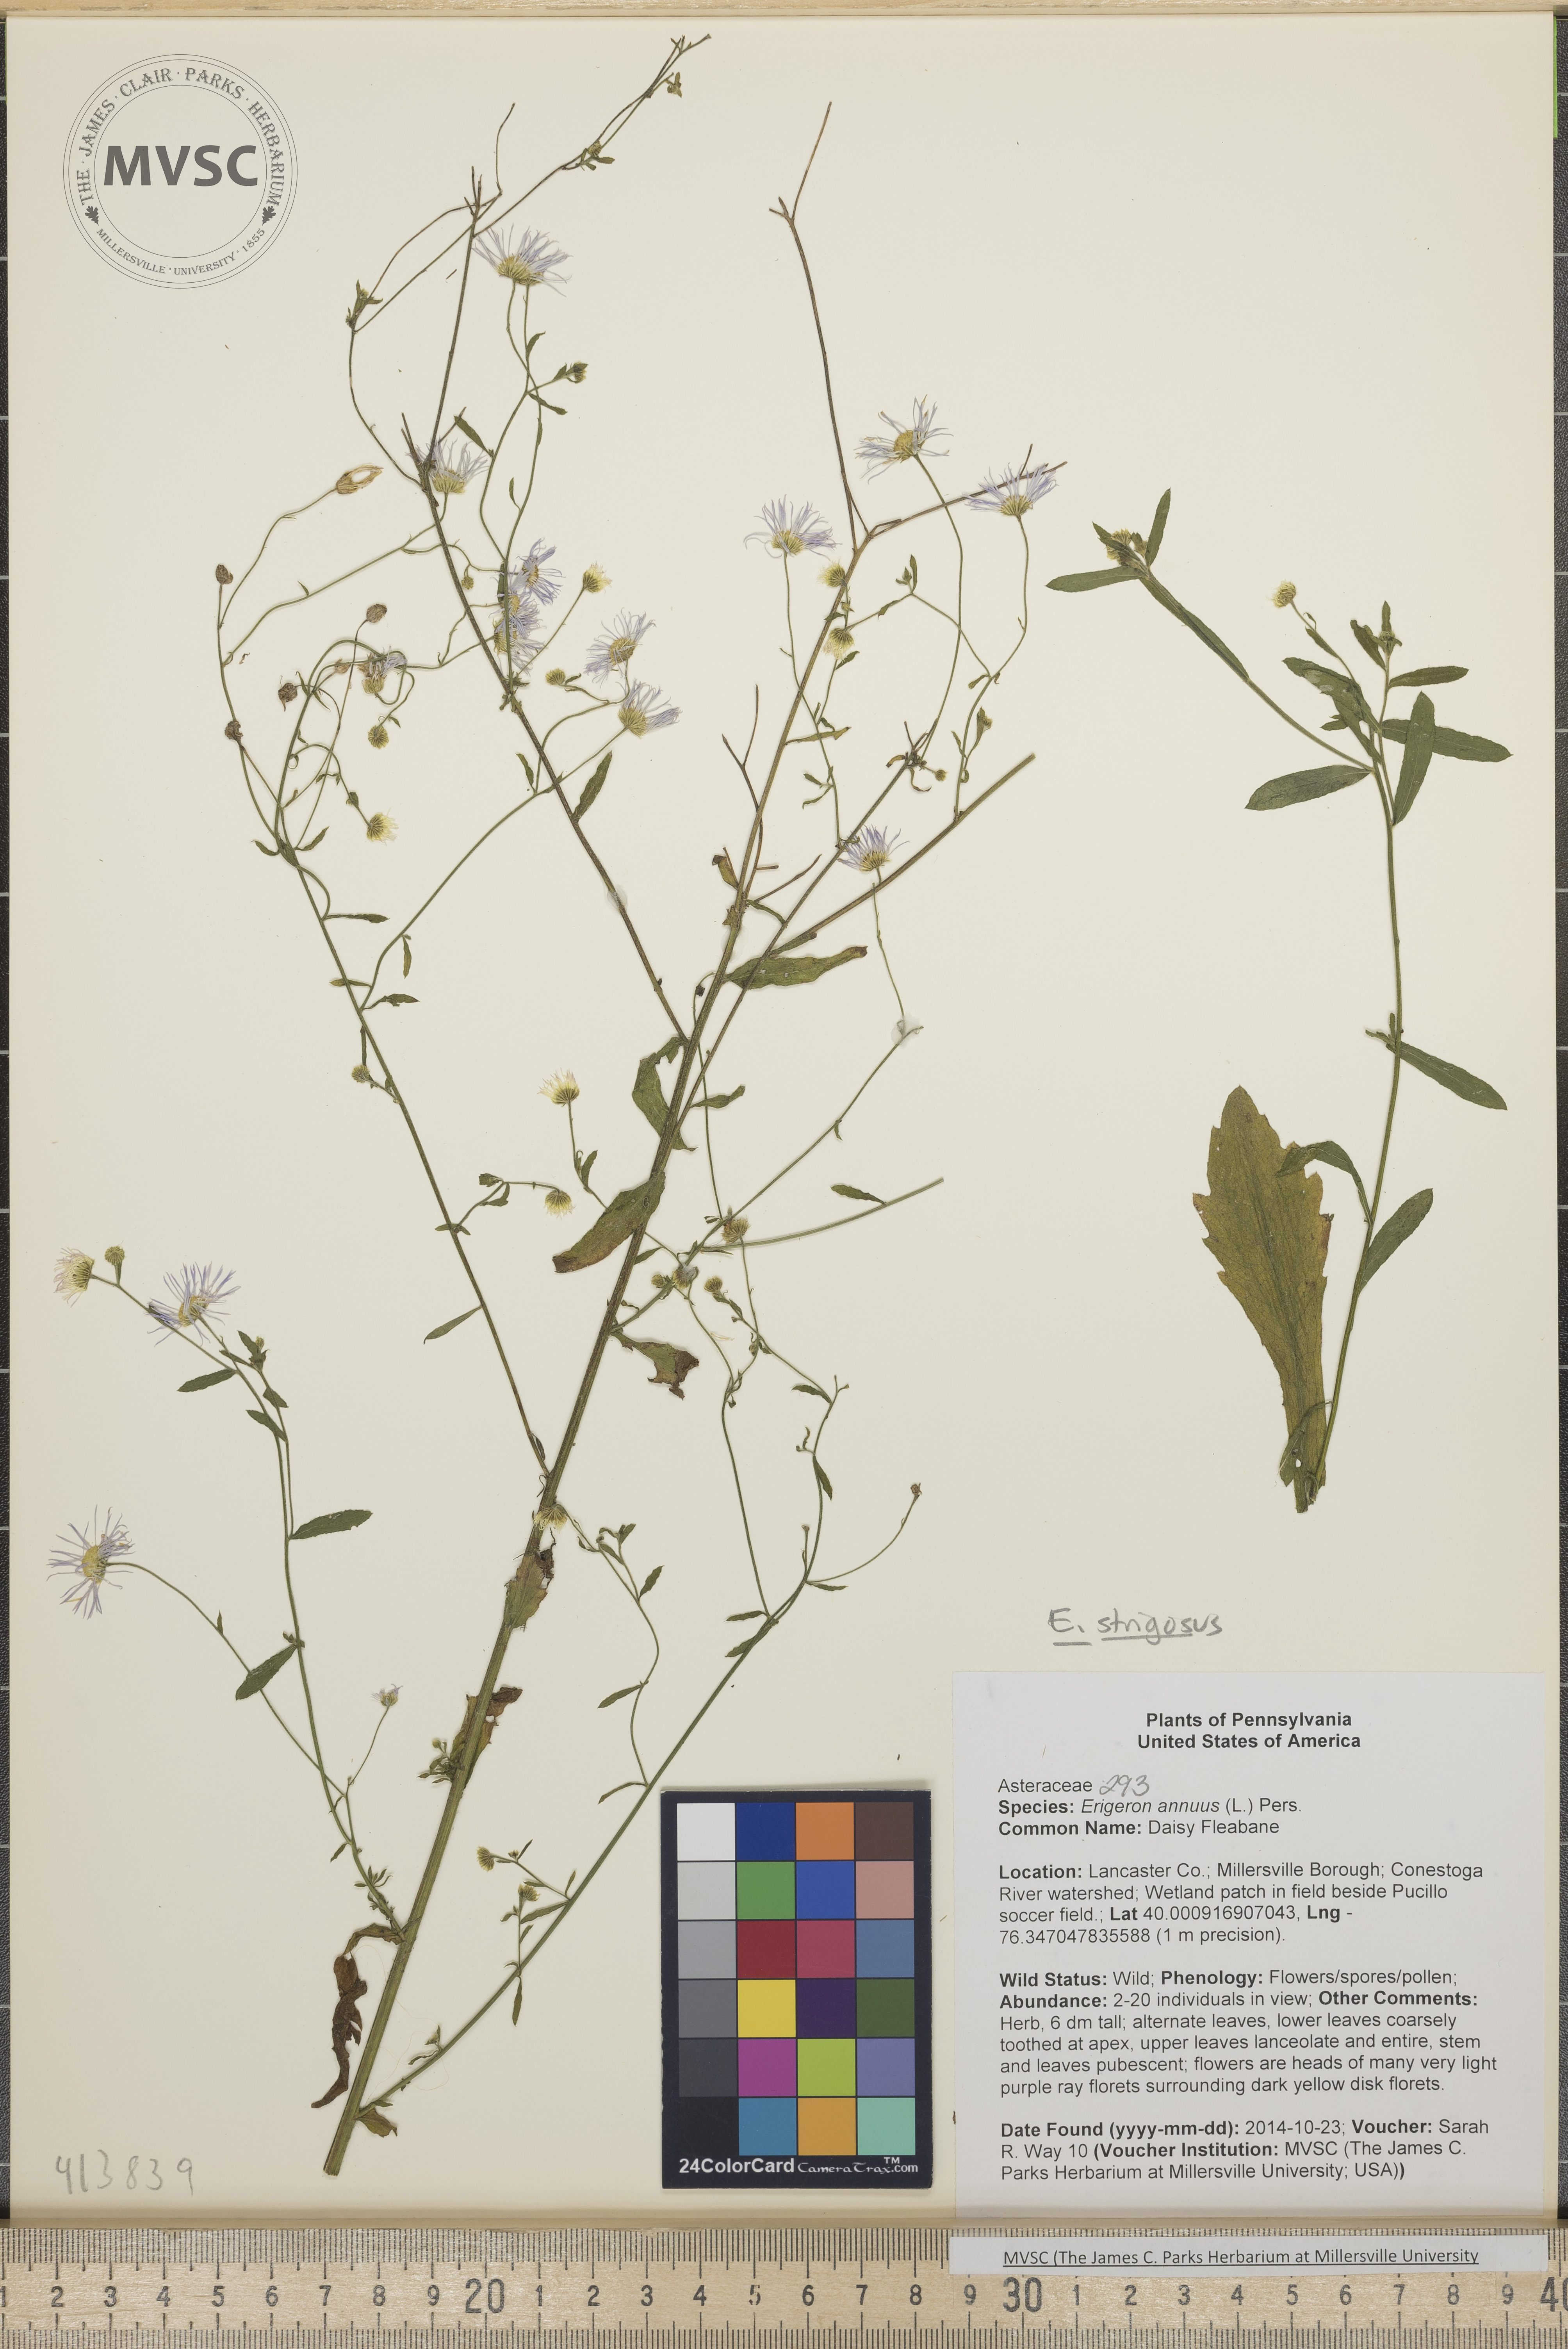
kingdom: Plantae
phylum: Tracheophyta
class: Magnoliopsida
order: Asterales
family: Asteraceae
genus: Erigeron
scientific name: Erigeron strigosus
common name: Daisy Fleabane
